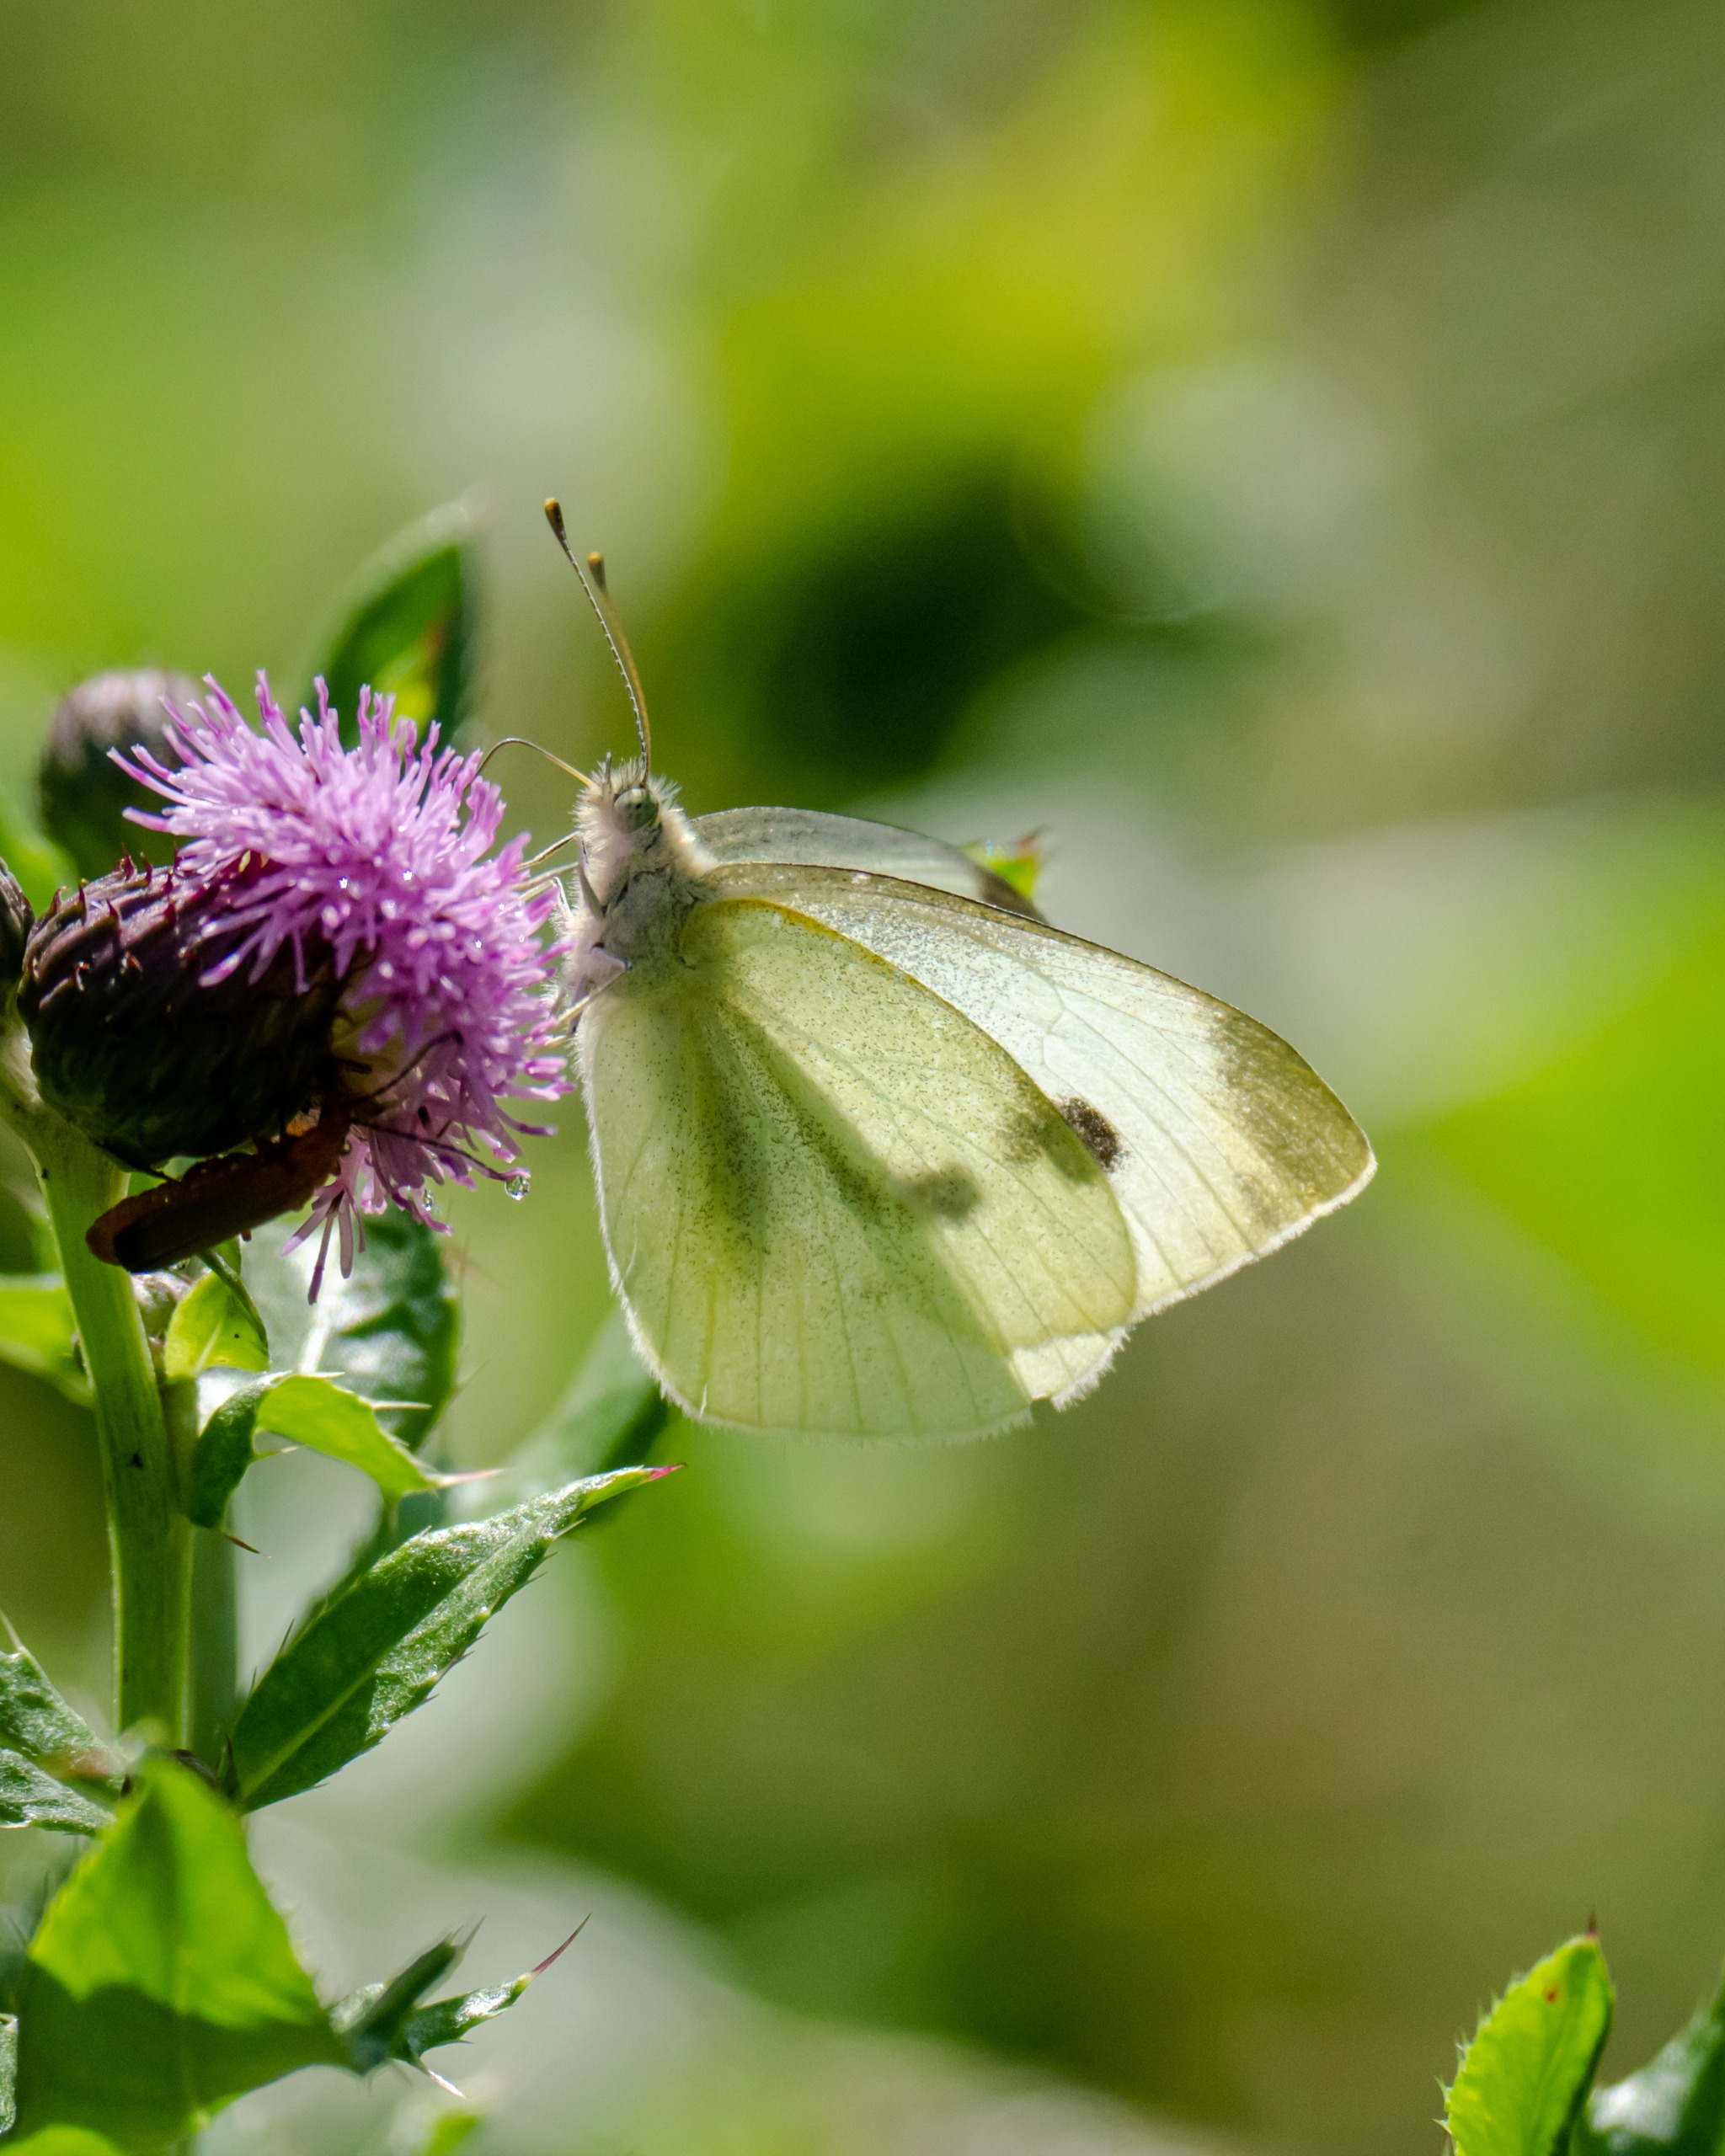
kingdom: Animalia
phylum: Arthropoda
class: Insecta
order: Lepidoptera
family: Pieridae
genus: Pieris
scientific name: Pieris rapae
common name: Lille kålsommerfugl
